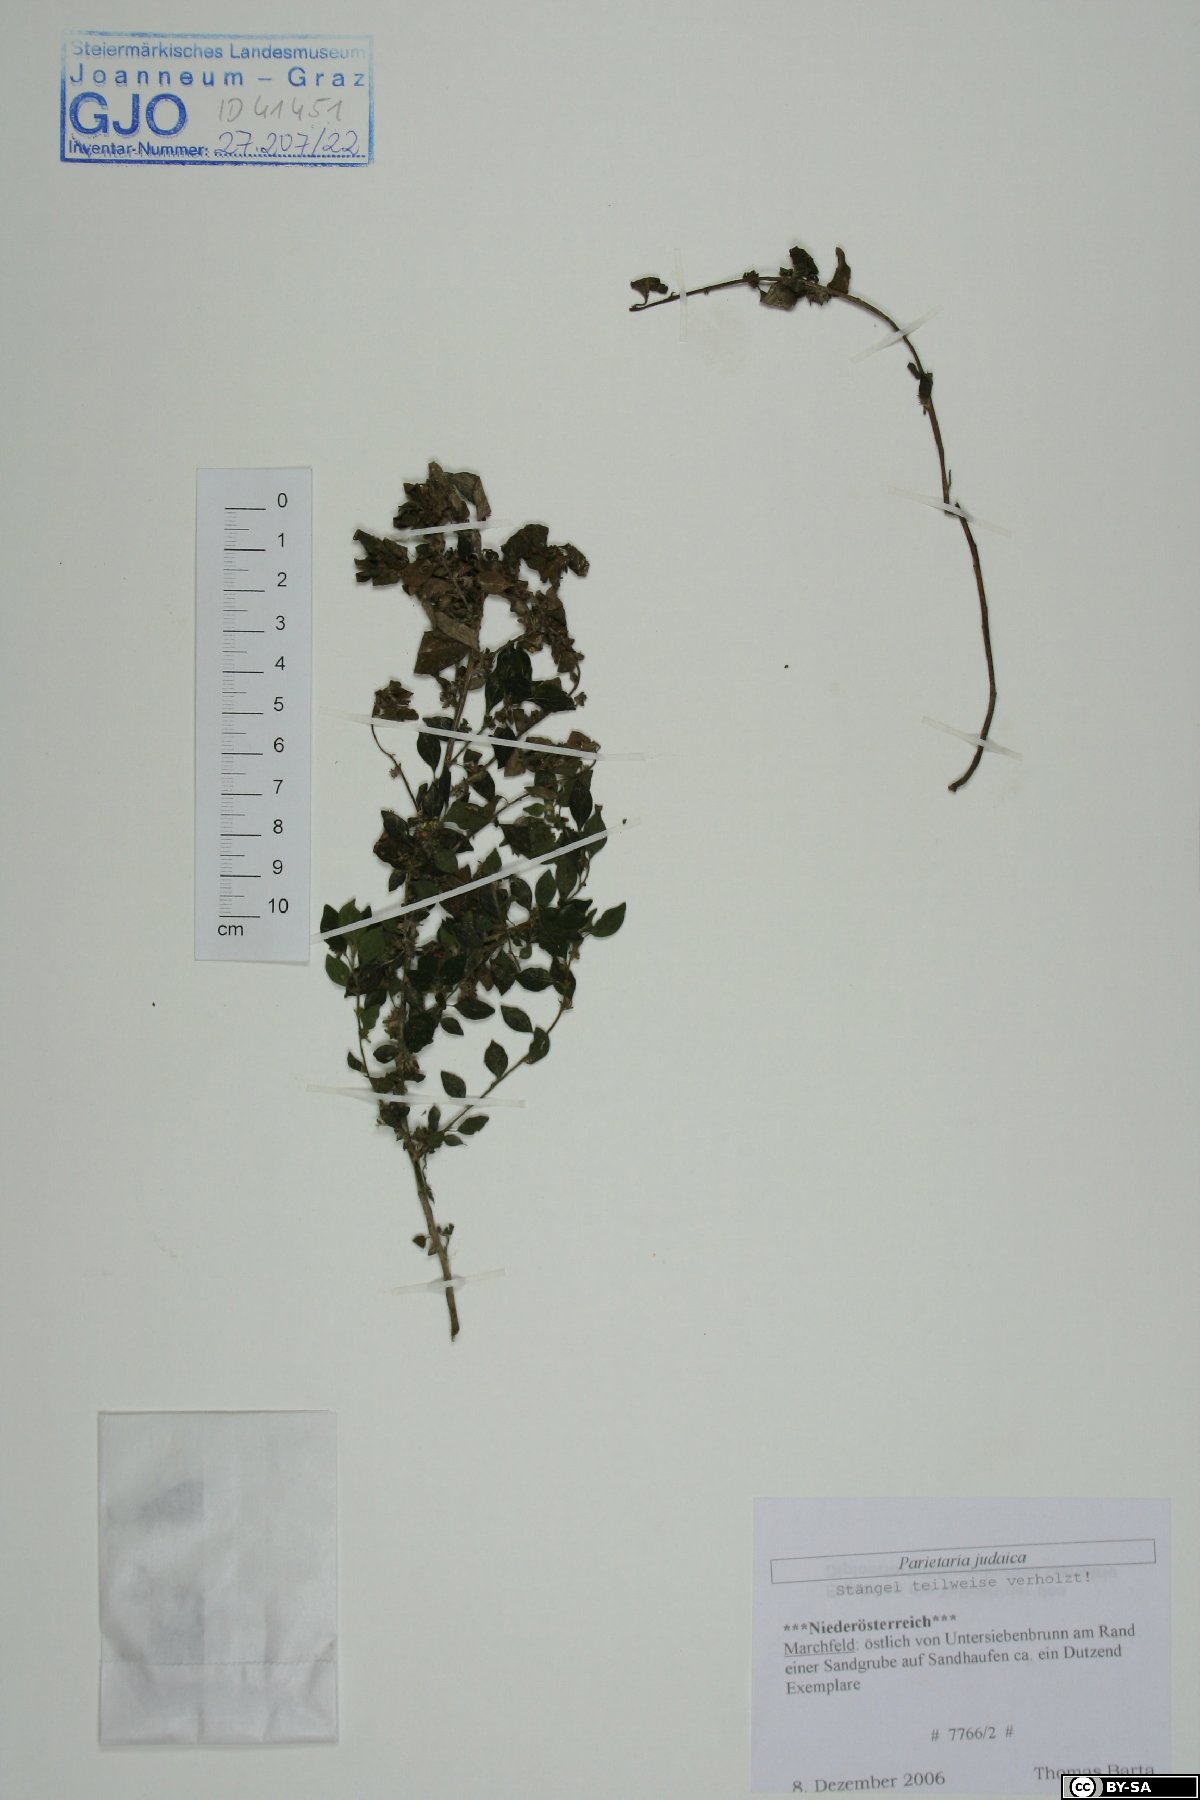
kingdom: Plantae
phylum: Tracheophyta
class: Magnoliopsida
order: Rosales
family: Urticaceae
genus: Parietaria
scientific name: Parietaria judaica
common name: Pellitory-of-the-wall
